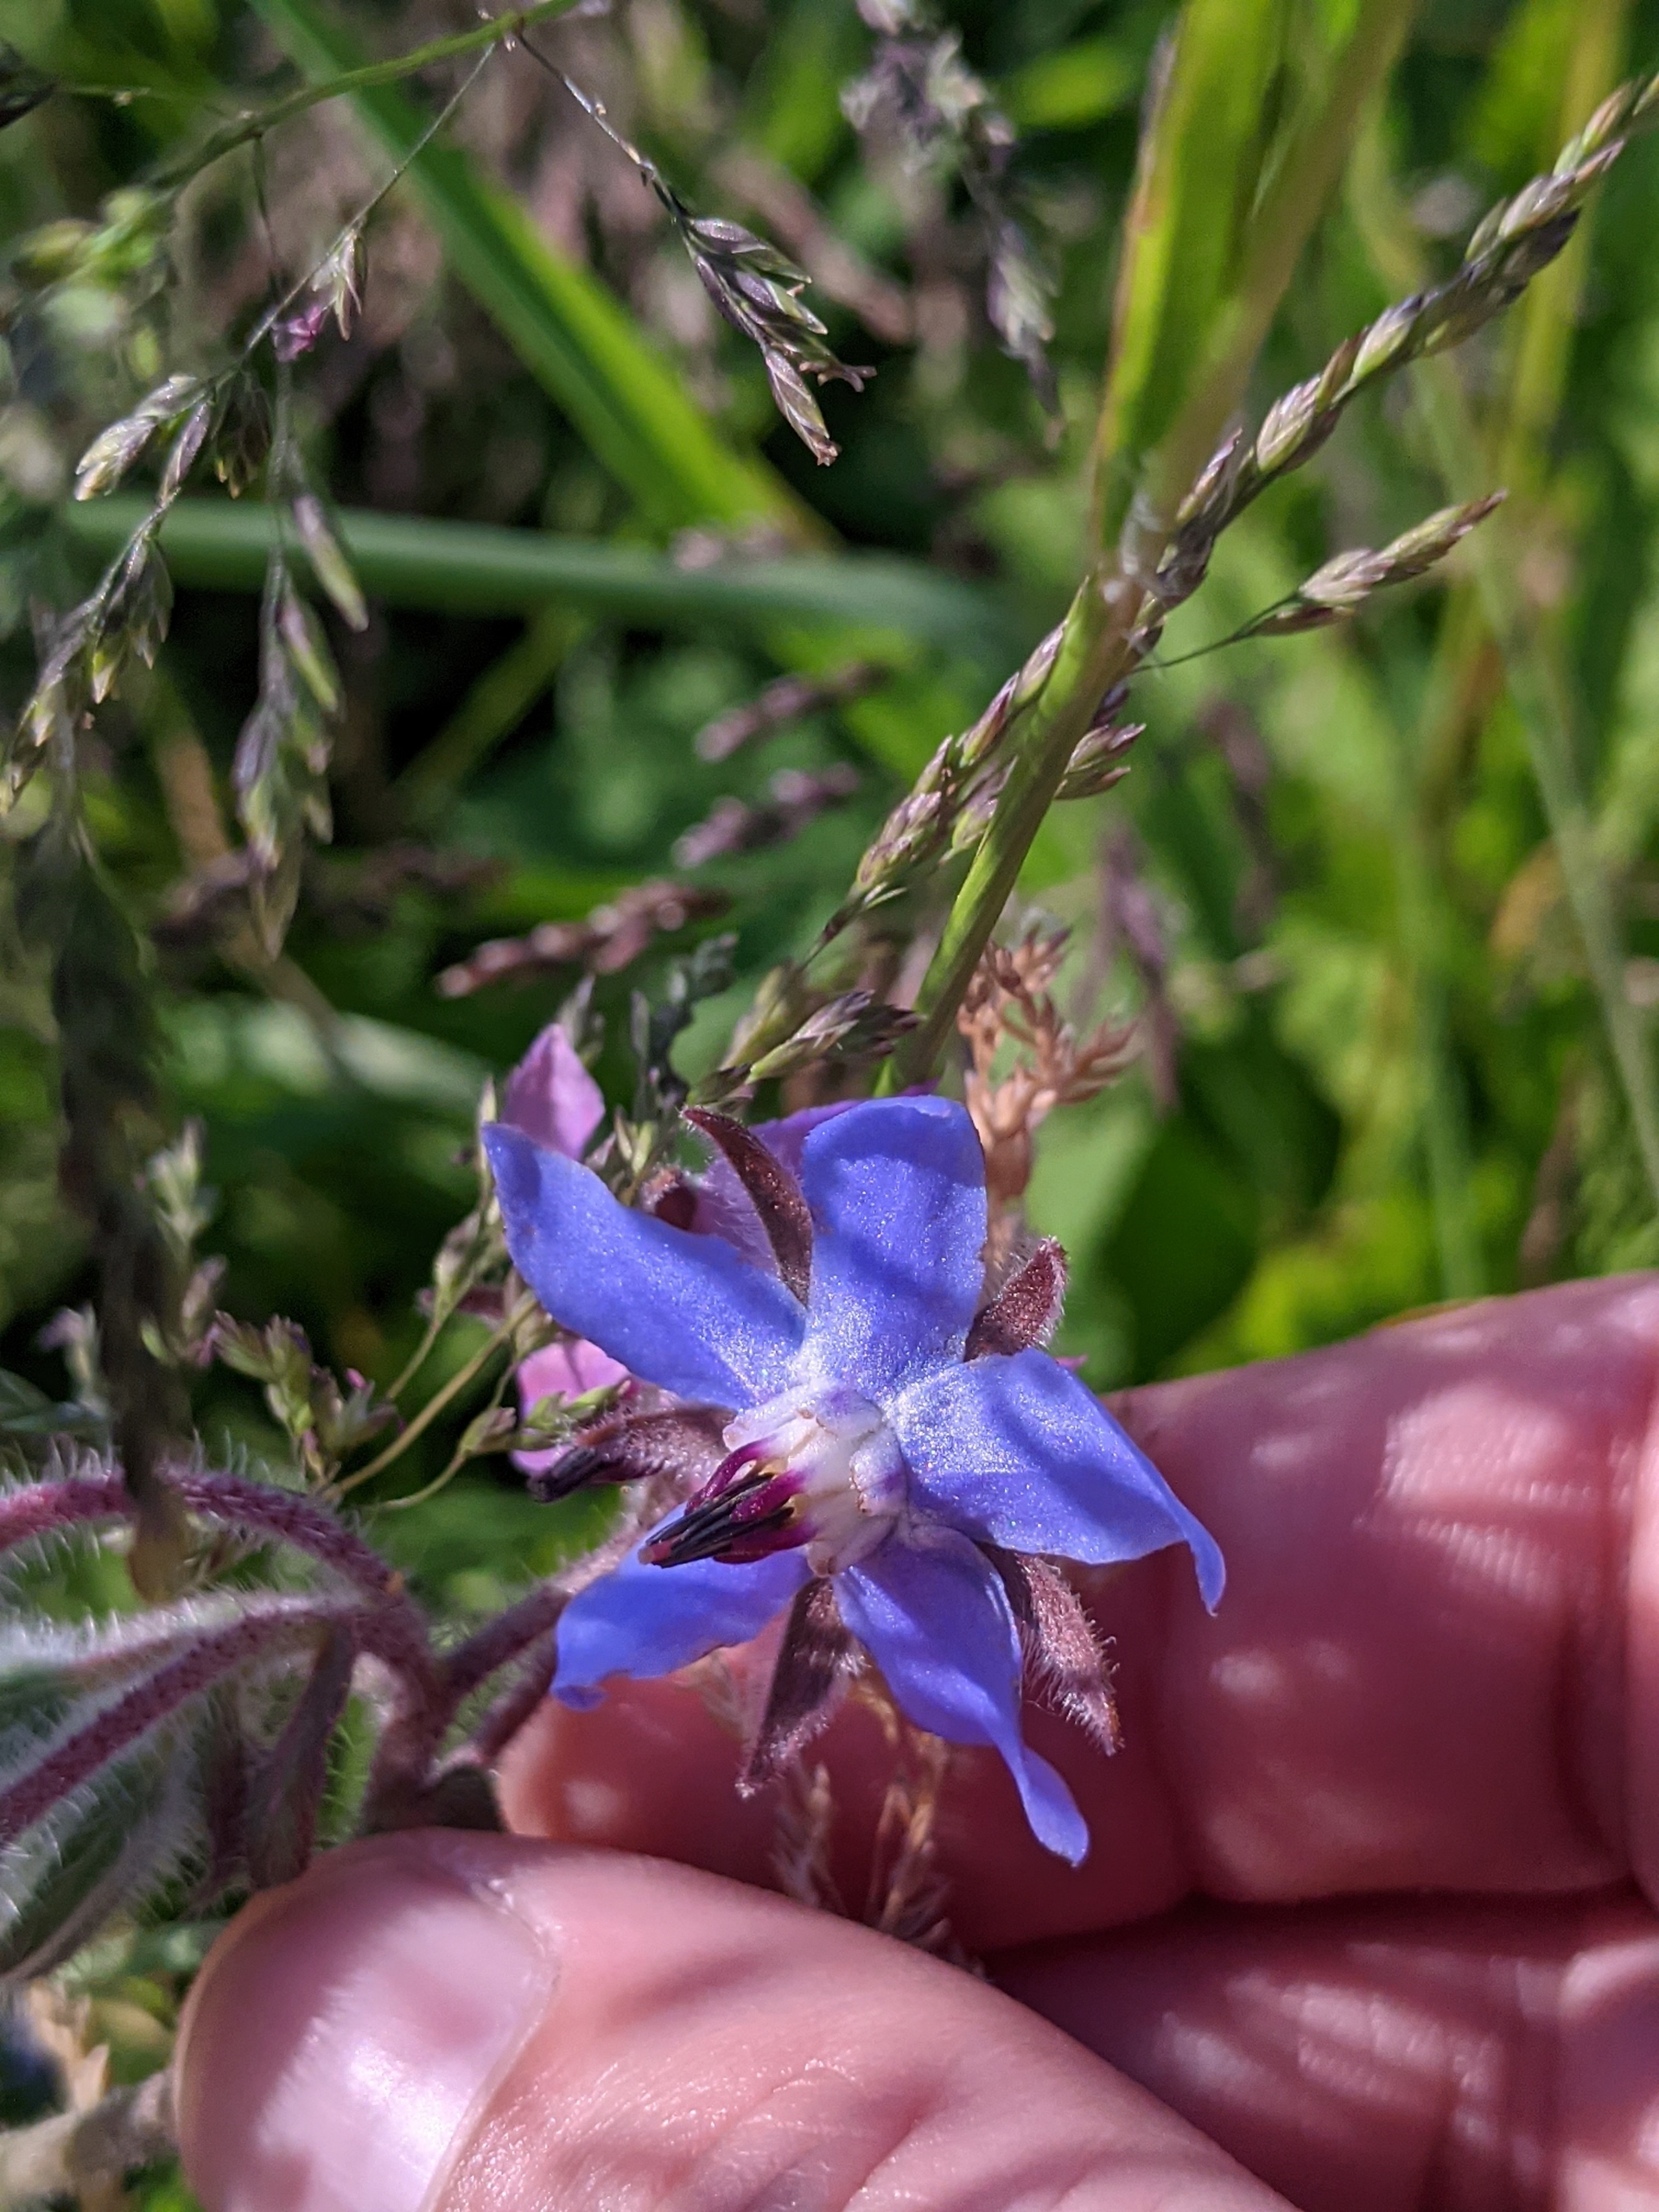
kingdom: Plantae
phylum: Tracheophyta
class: Magnoliopsida
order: Boraginales
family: Boraginaceae
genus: Borago
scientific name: Borago officinalis
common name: Hjulkrone
